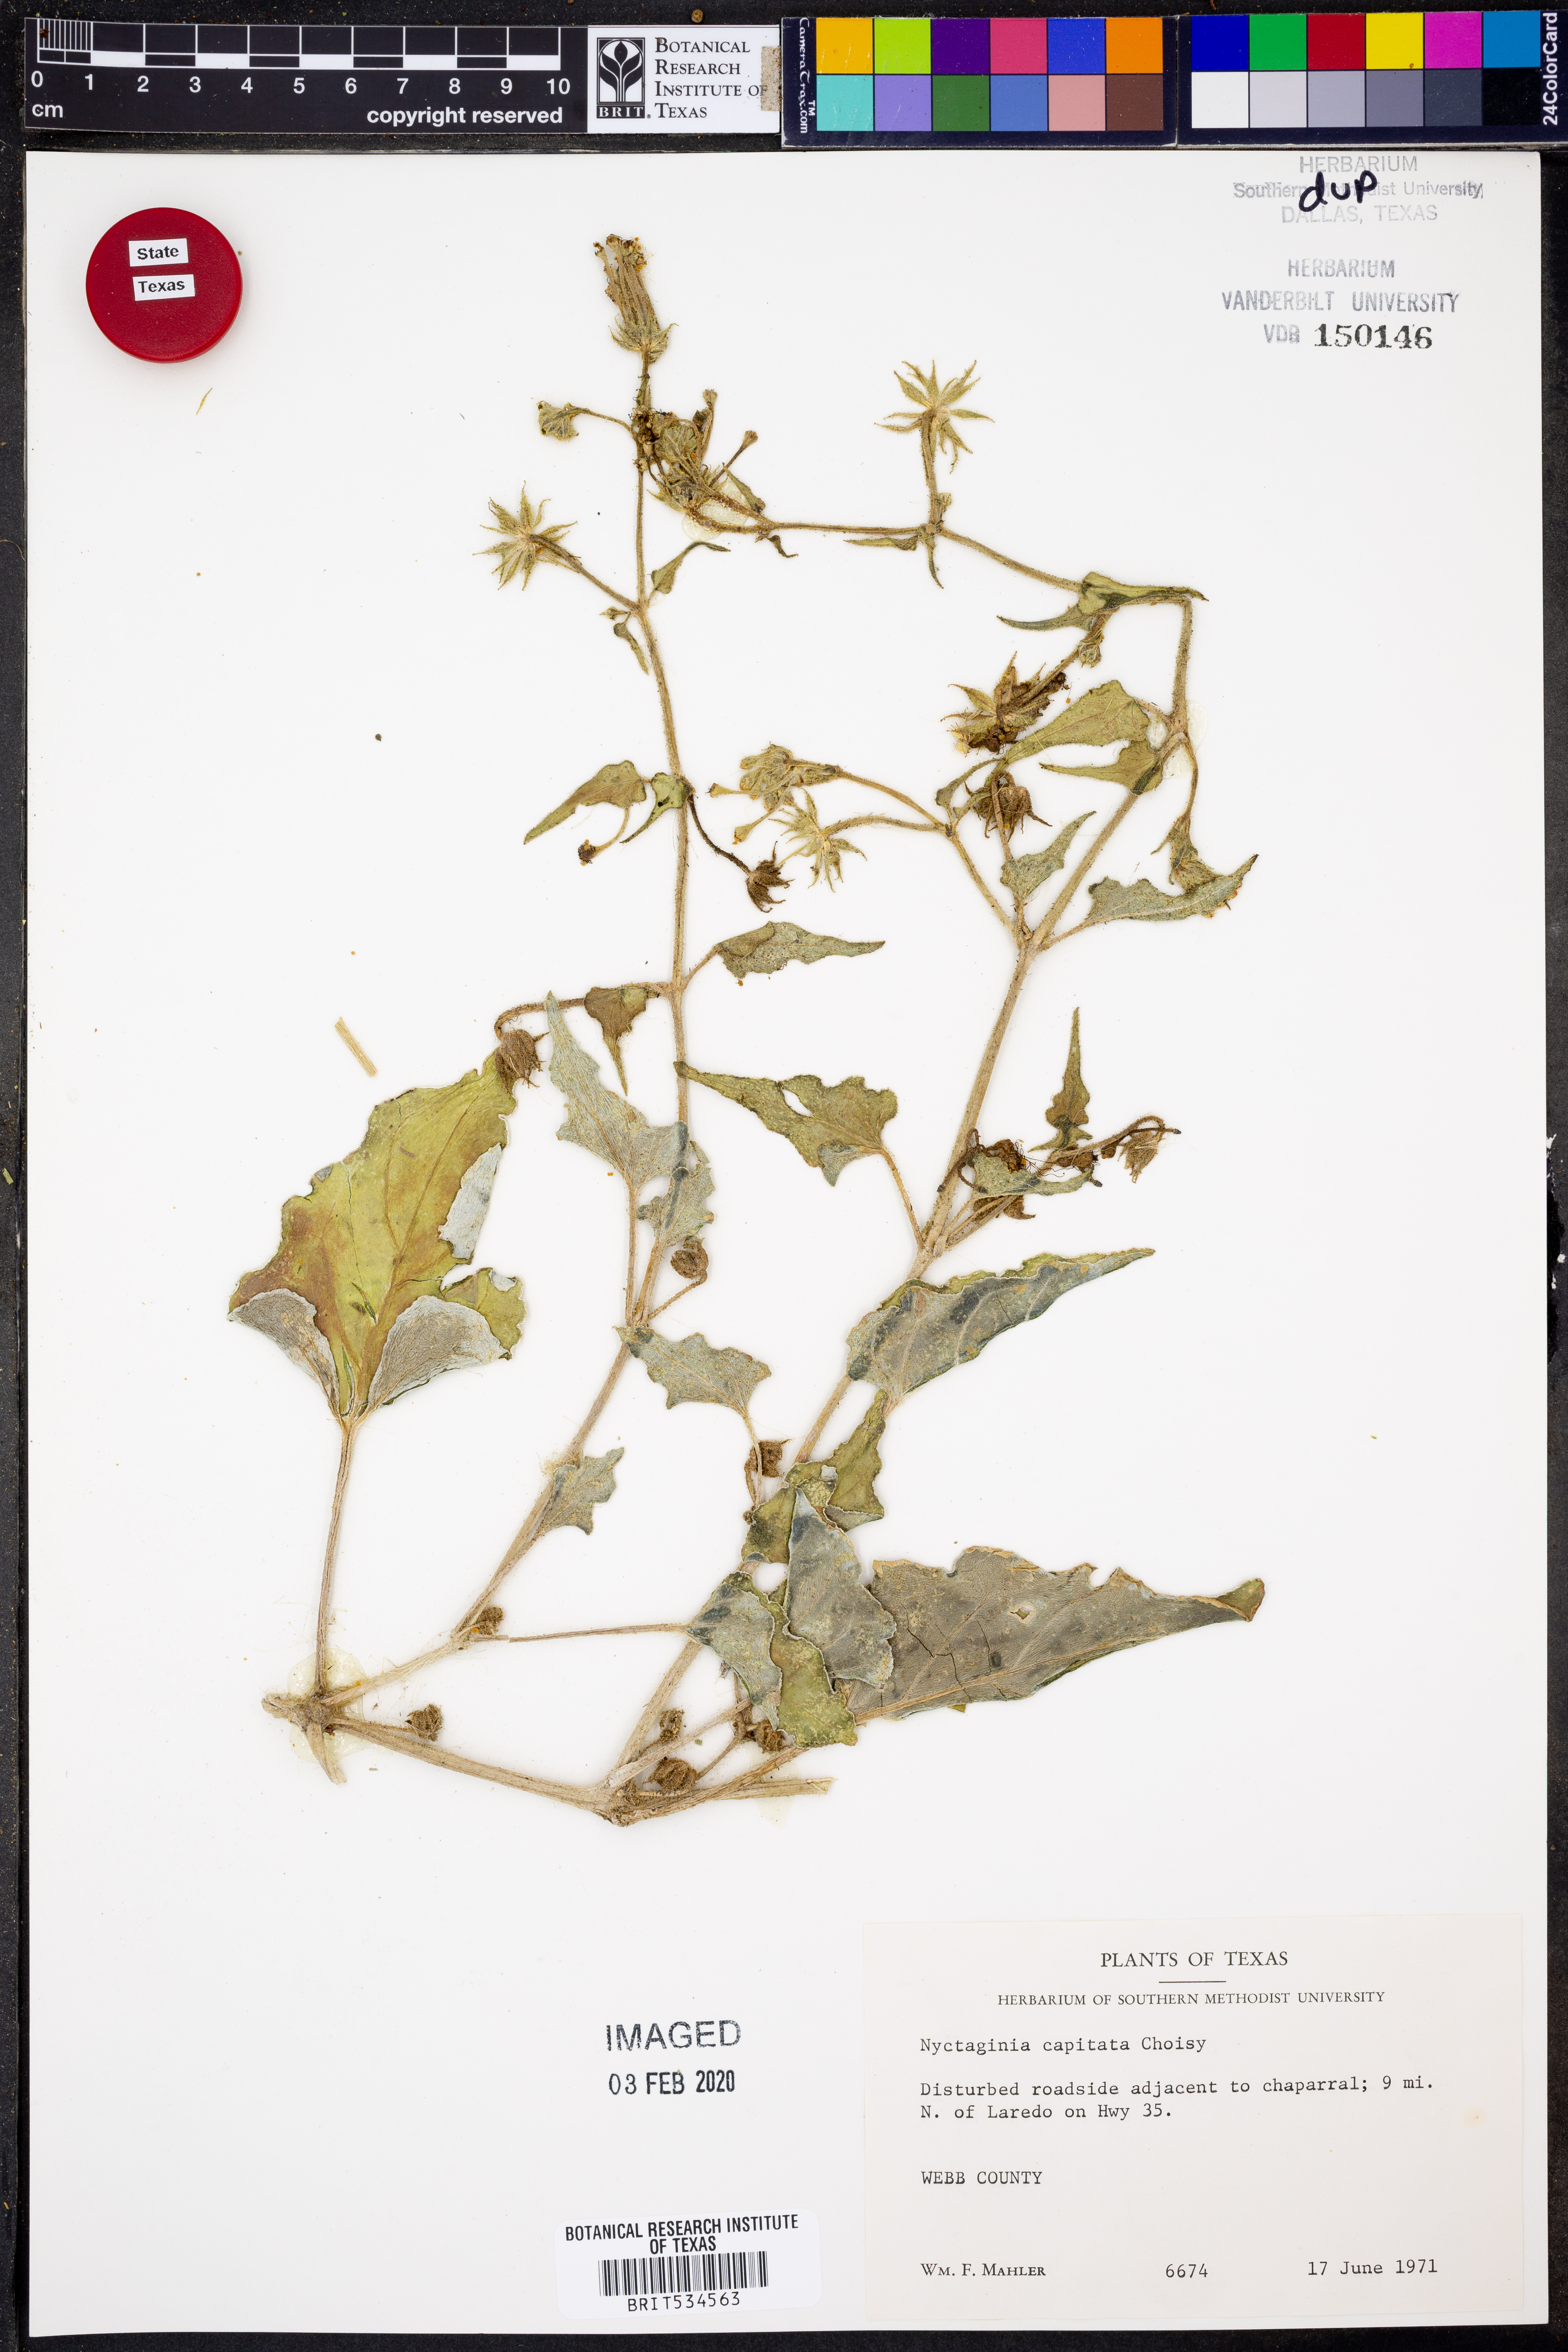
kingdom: Plantae
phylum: Tracheophyta
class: Magnoliopsida
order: Caryophyllales
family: Nyctaginaceae
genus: Nyctaginia
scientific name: Nyctaginia capitata
